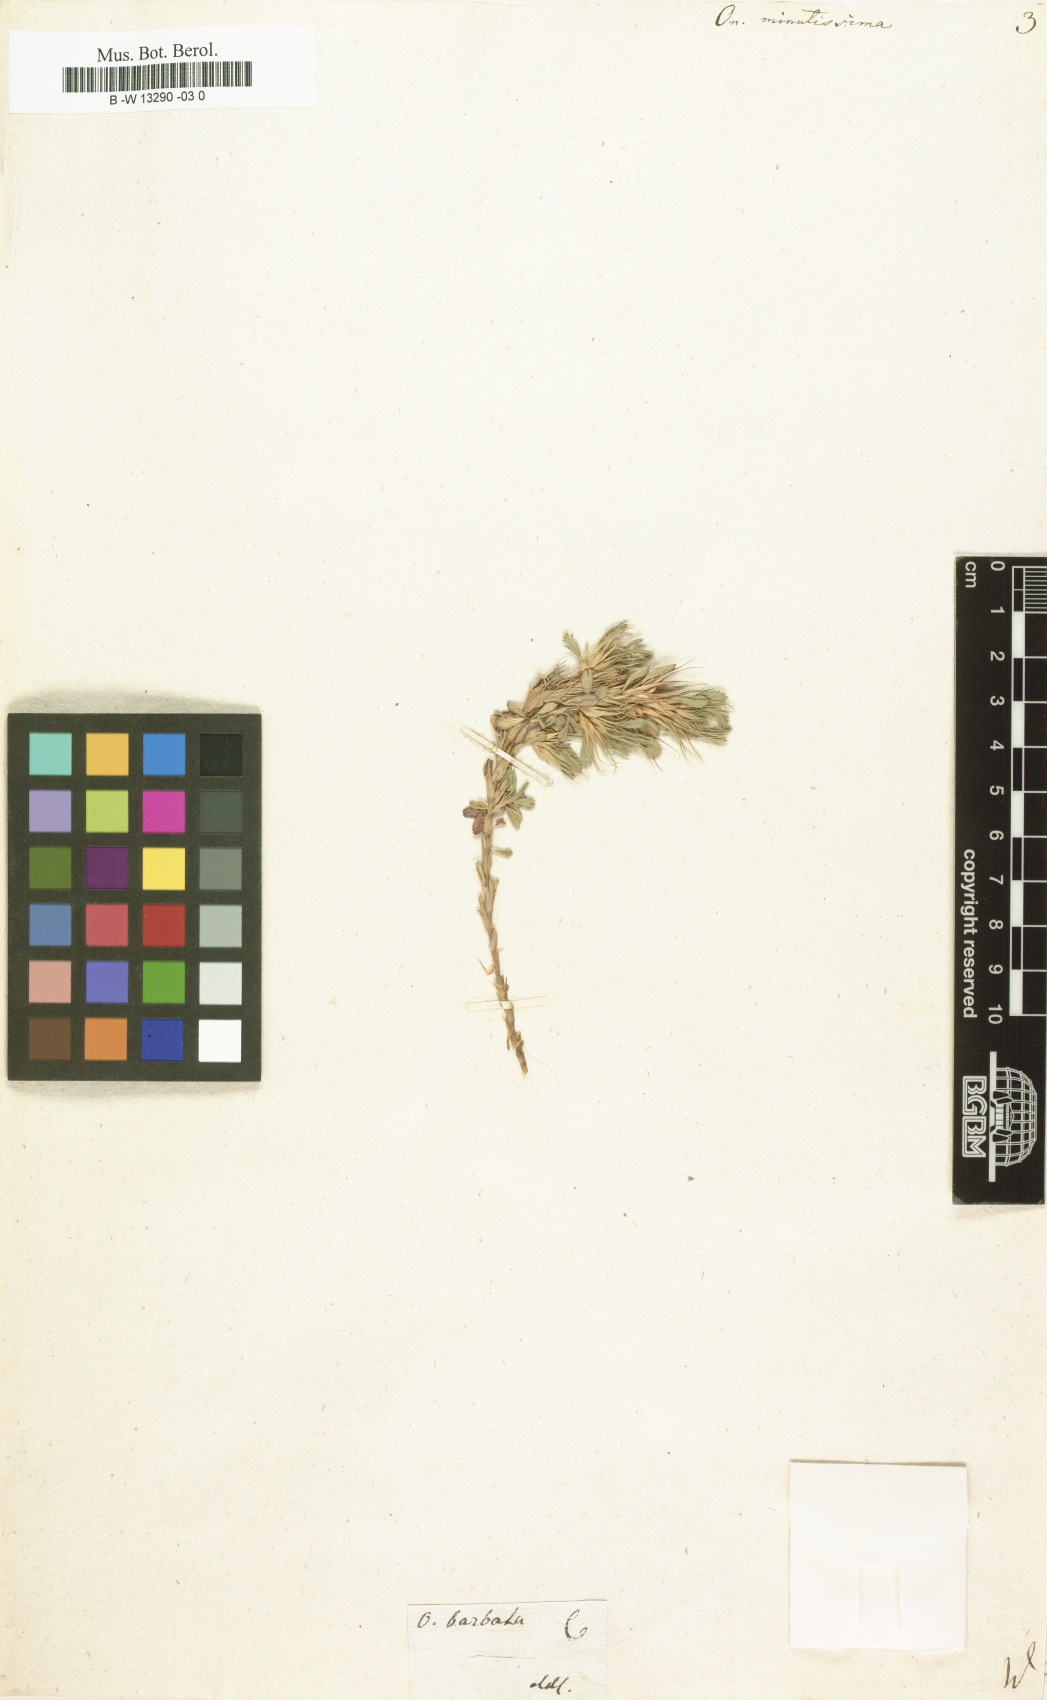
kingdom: Plantae
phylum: Tracheophyta
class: Magnoliopsida
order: Fabales
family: Fabaceae
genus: Ononis
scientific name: Ononis minutissima
